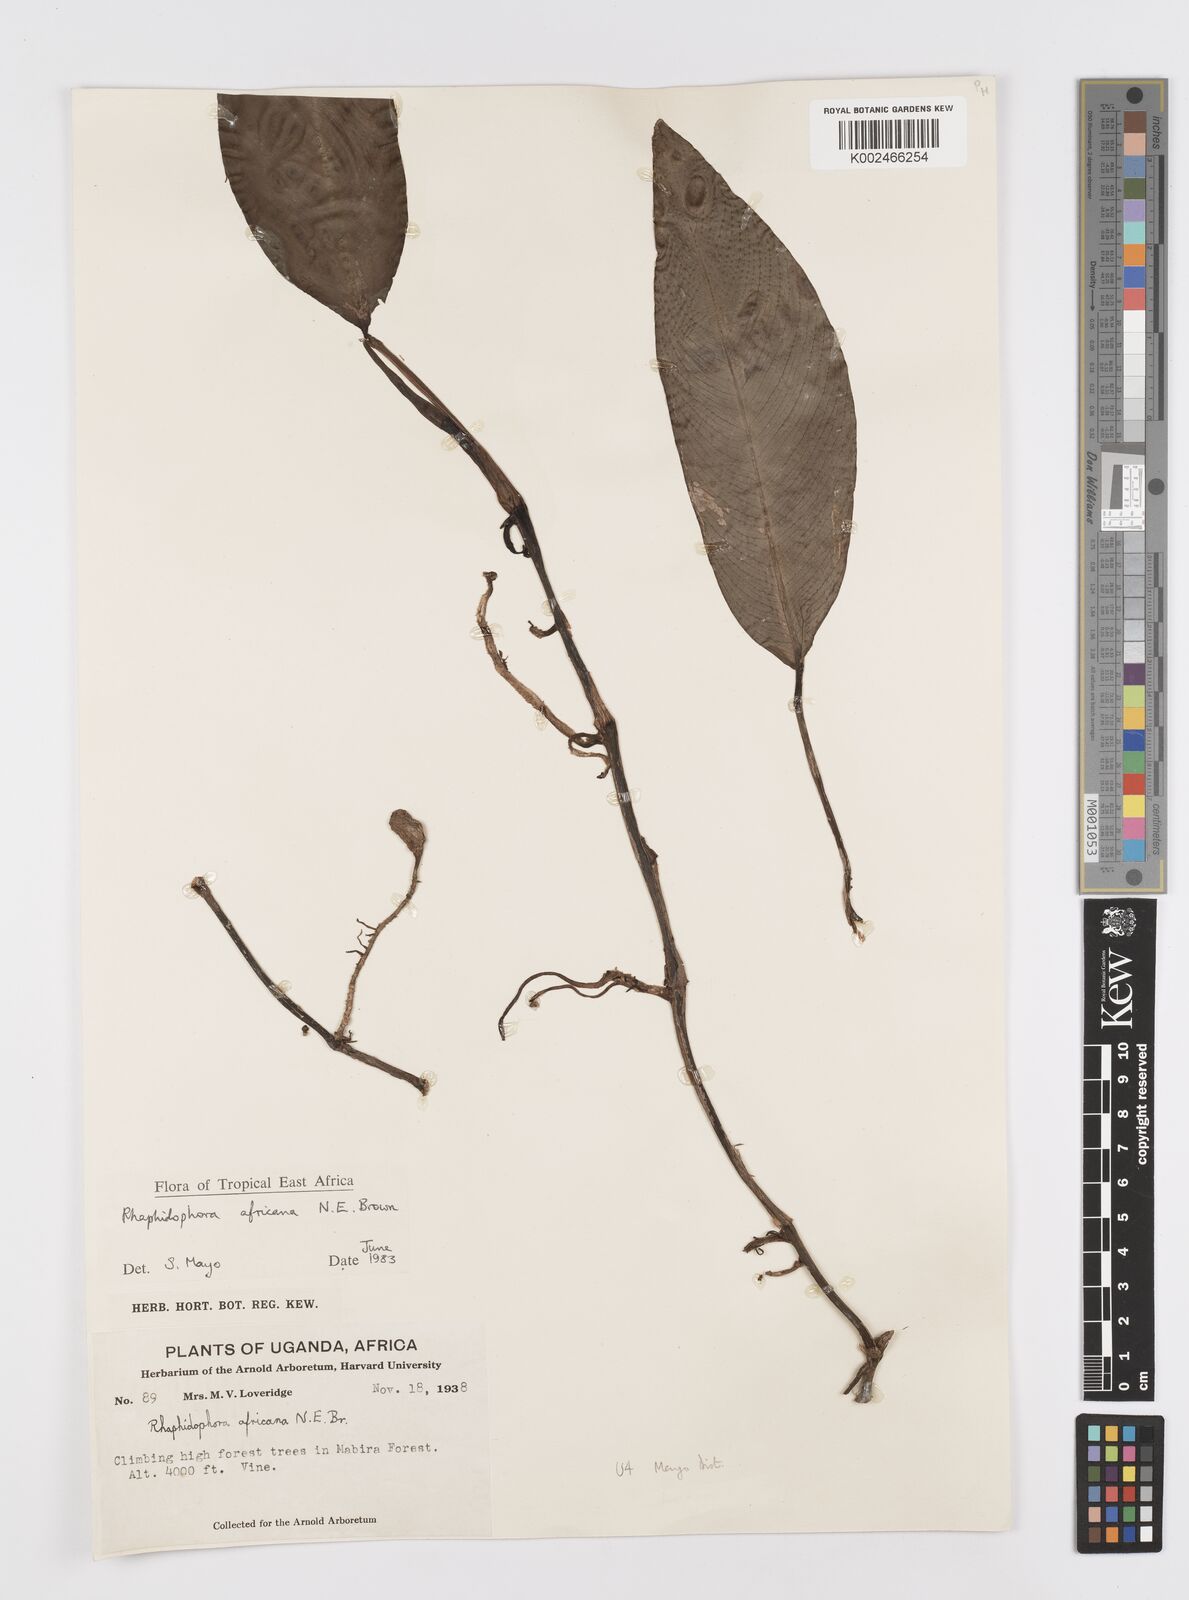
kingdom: Plantae
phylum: Tracheophyta
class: Liliopsida
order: Alismatales
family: Araceae
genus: Rhaphidophora
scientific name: Rhaphidophora africana
